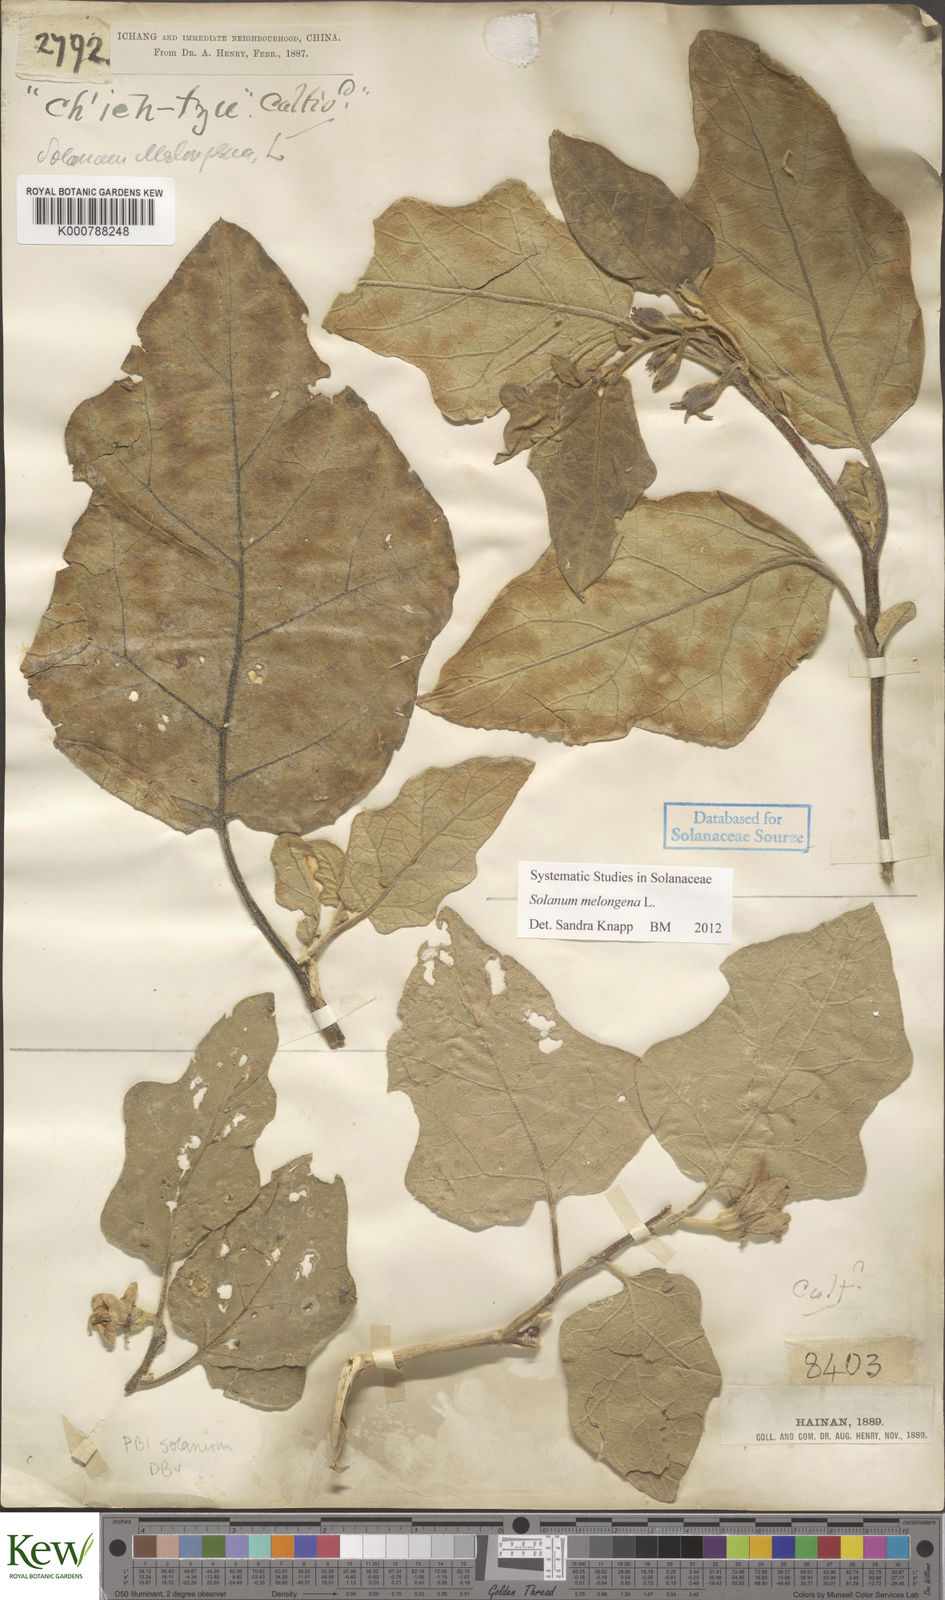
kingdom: Plantae
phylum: Tracheophyta
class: Magnoliopsida
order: Solanales
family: Solanaceae
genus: Solanum
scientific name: Solanum melongena
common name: Eggplant
